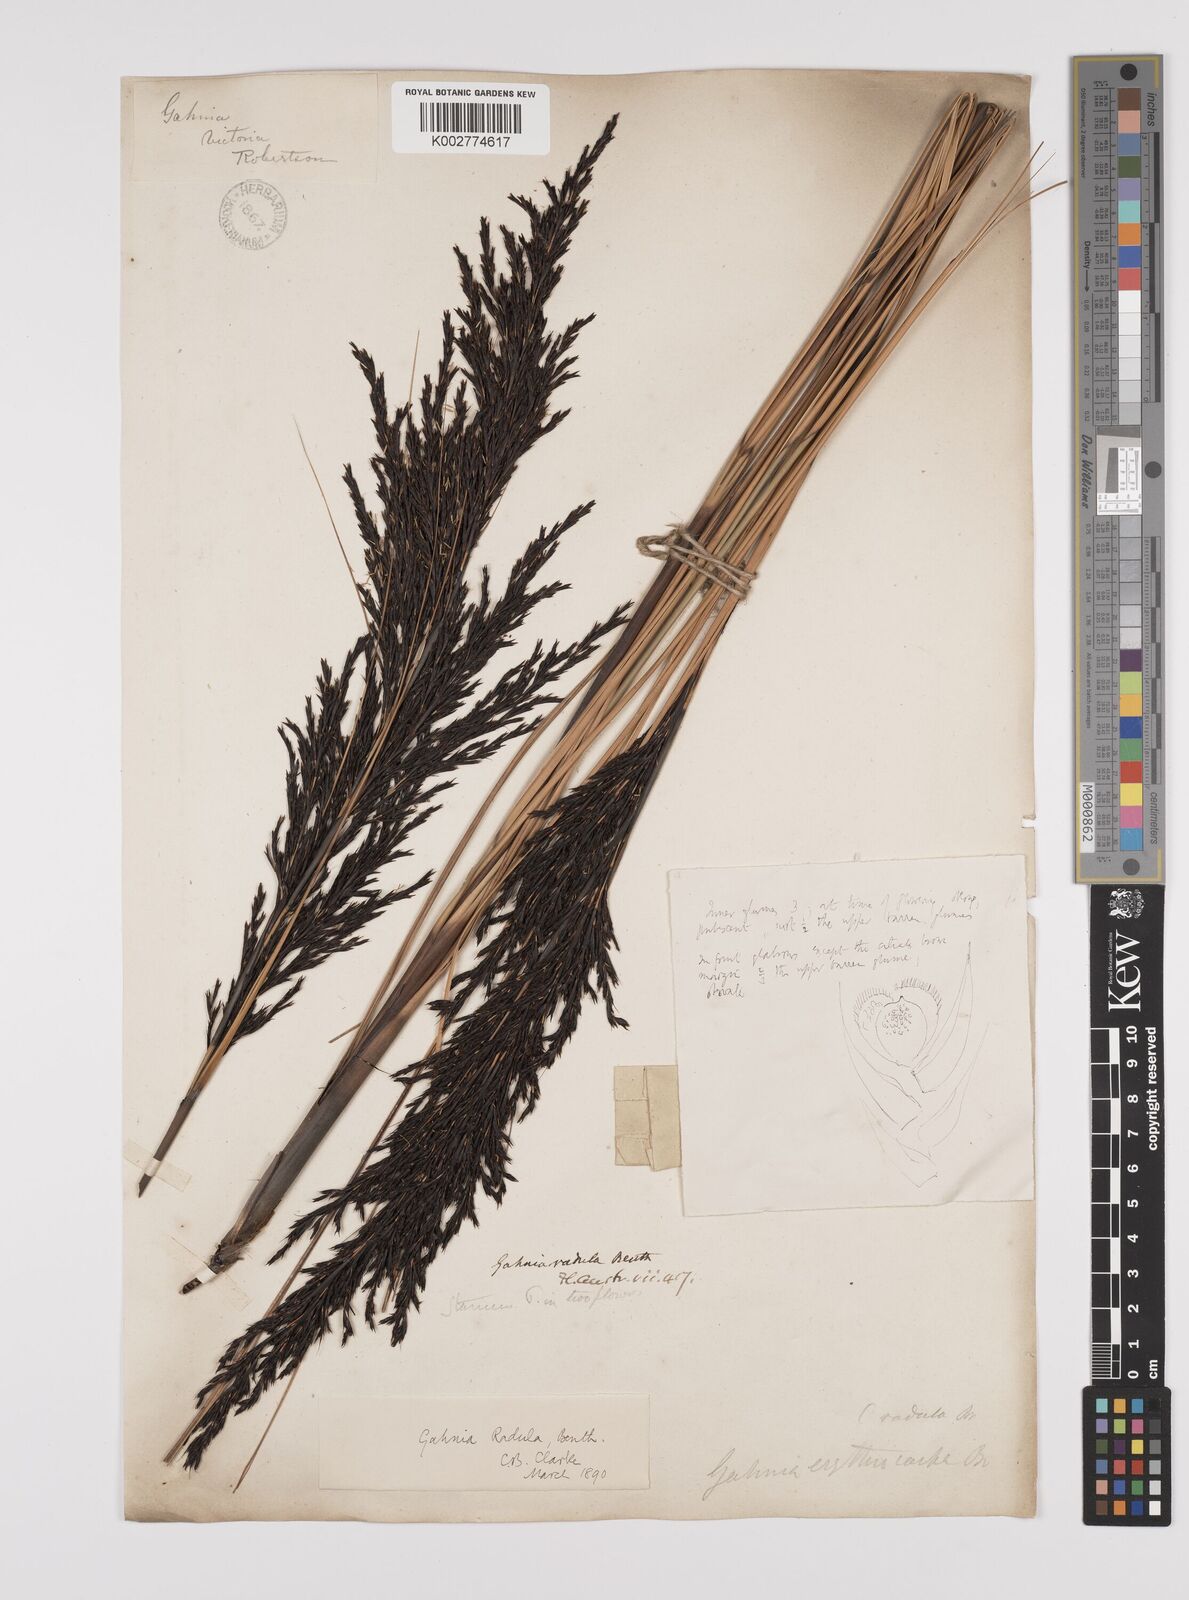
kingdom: Plantae
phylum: Tracheophyta
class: Liliopsida
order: Poales
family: Cyperaceae
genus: Gahnia
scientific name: Gahnia radula
